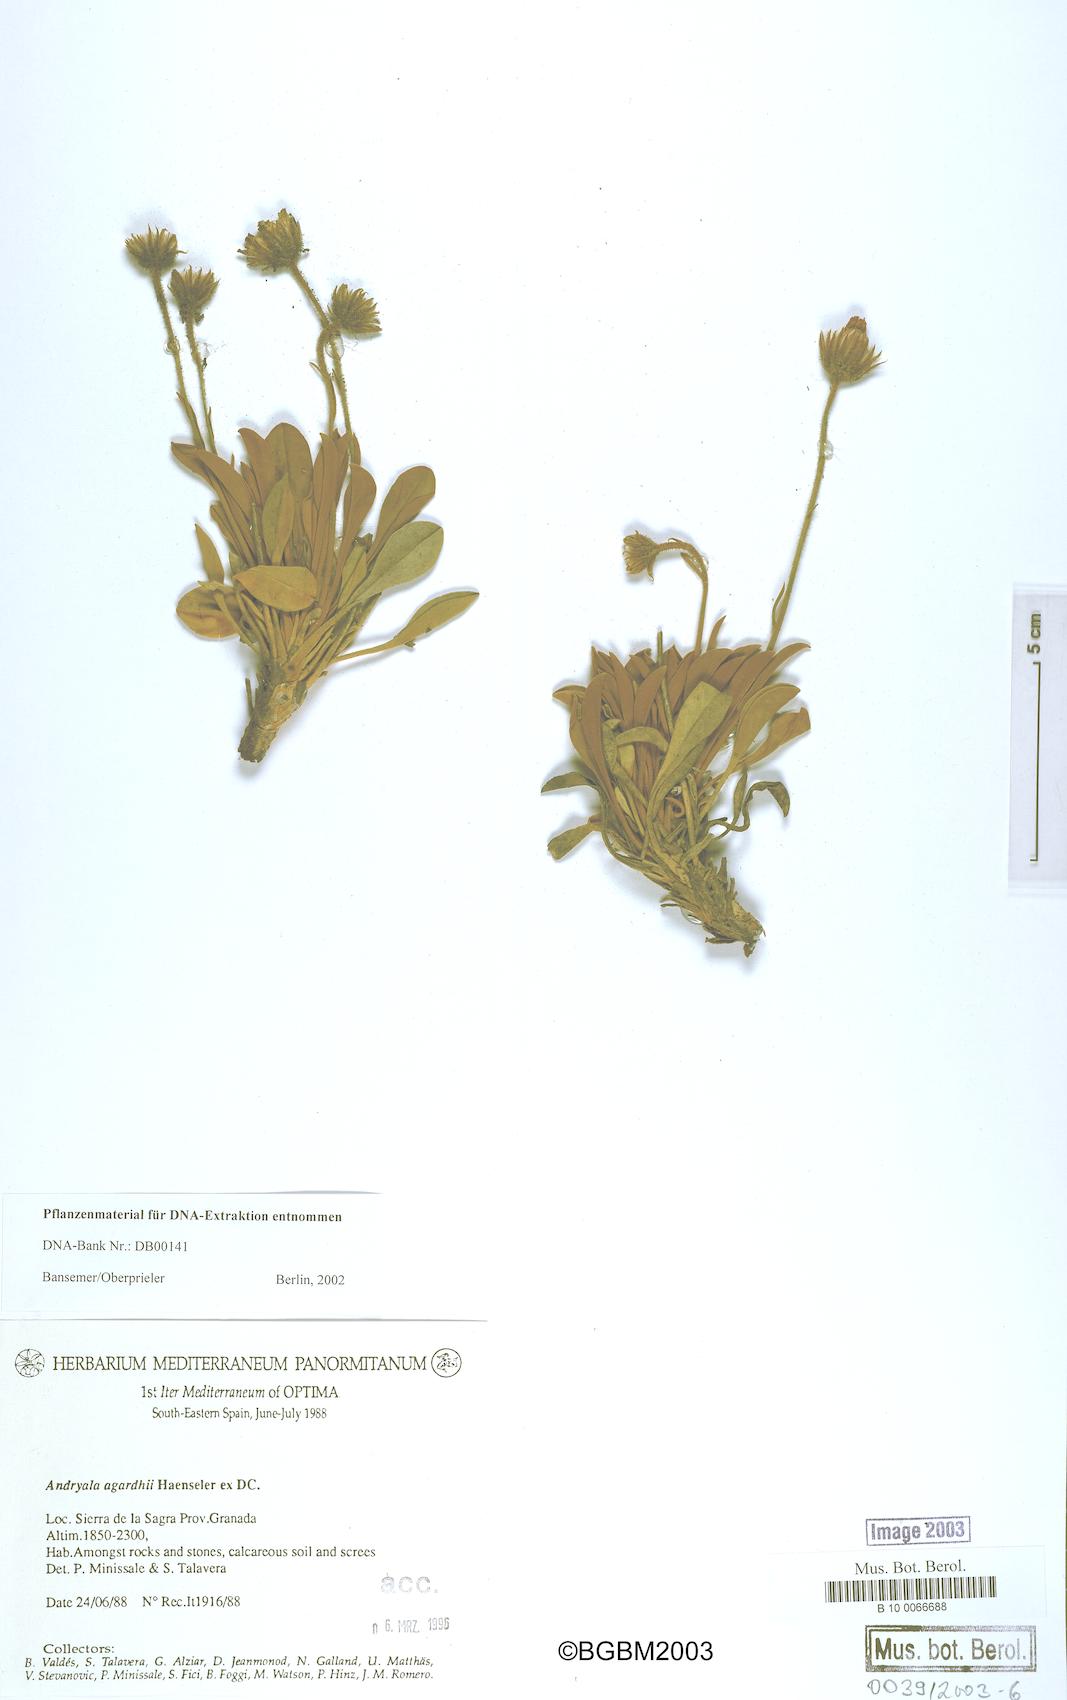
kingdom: Plantae
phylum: Tracheophyta
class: Magnoliopsida
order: Asterales
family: Asteraceae
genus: Andryala
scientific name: Andryala agardhii
